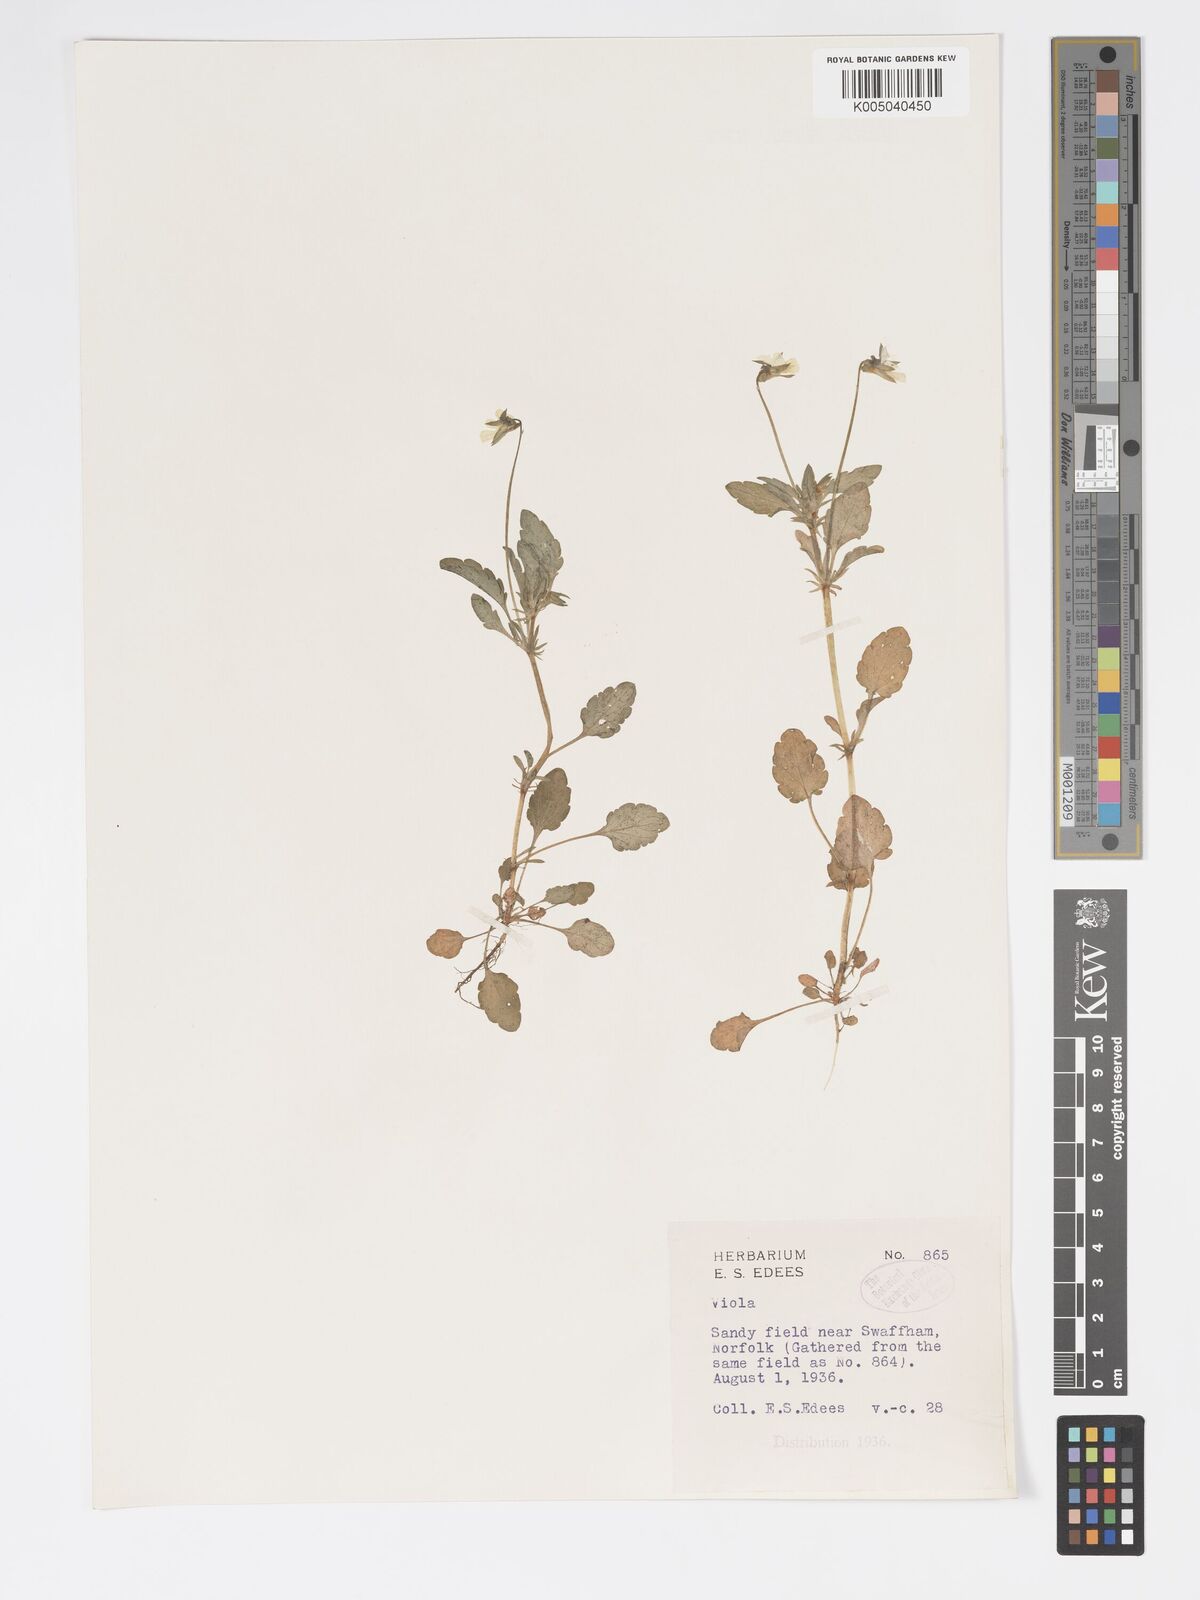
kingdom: Plantae
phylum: Tracheophyta
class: Magnoliopsida
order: Malpighiales
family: Violaceae
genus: Viola
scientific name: Viola arvensis
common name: Field pansy
